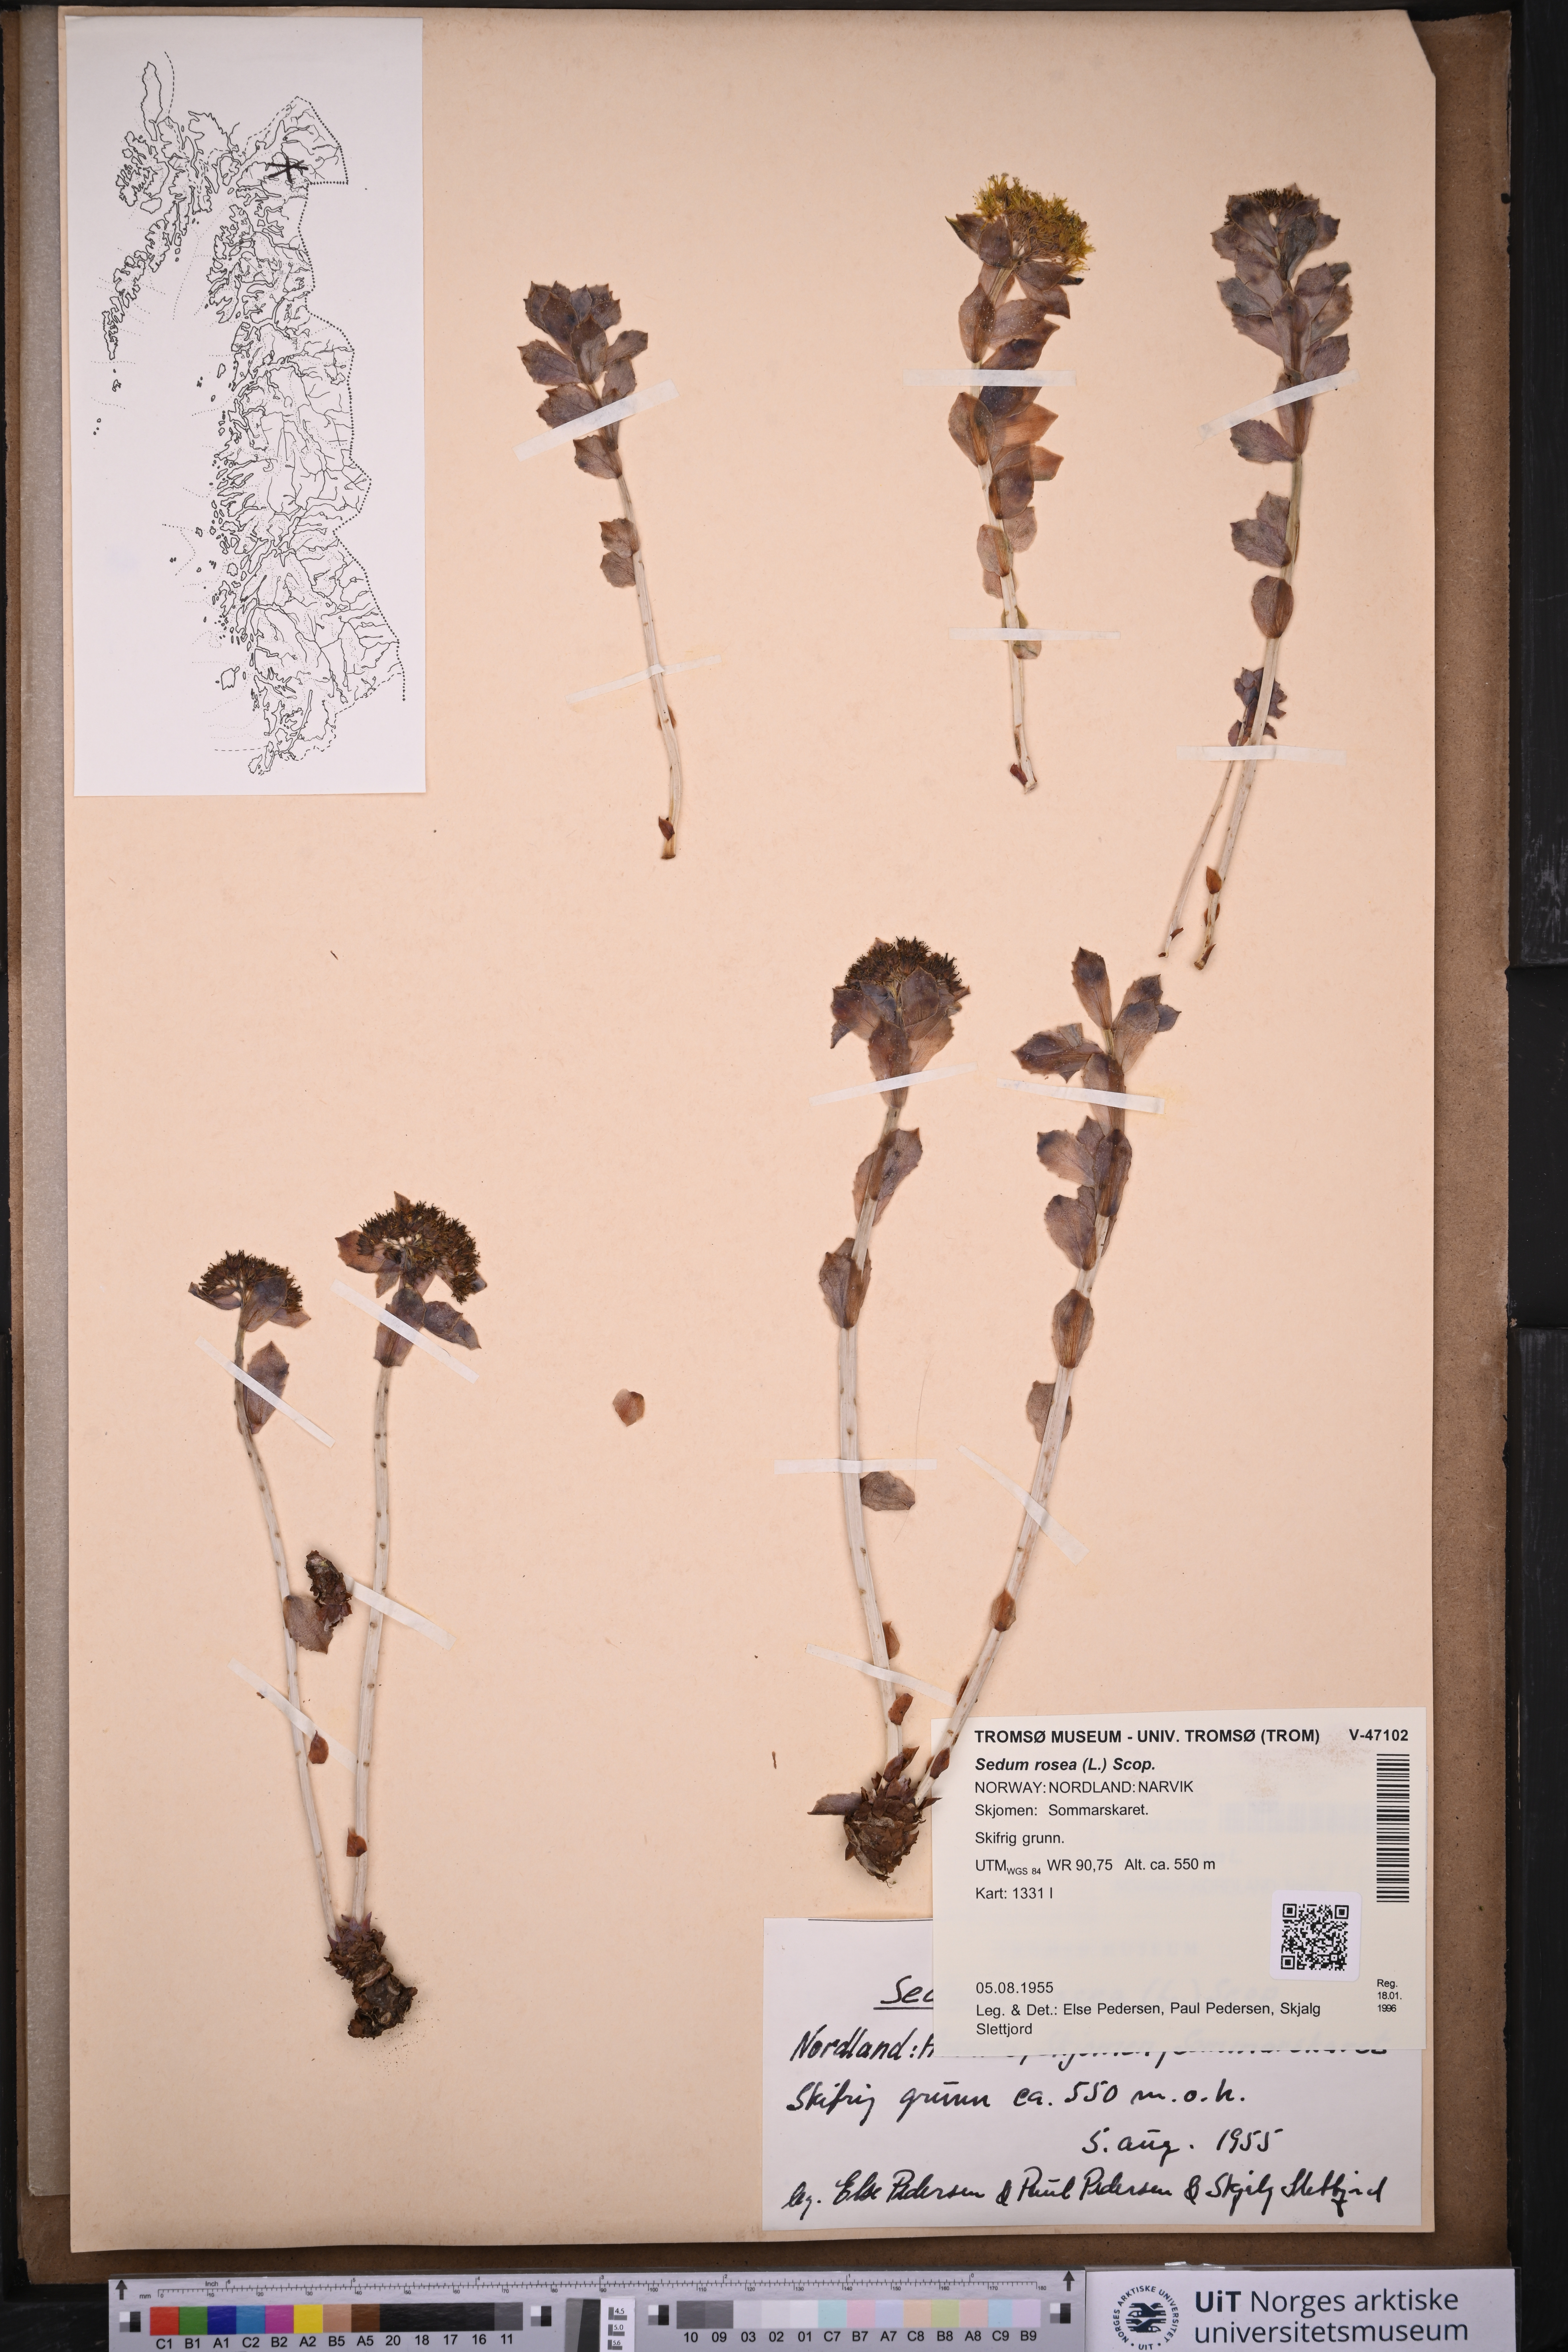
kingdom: Plantae
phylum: Tracheophyta
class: Magnoliopsida
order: Saxifragales
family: Crassulaceae
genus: Rhodiola
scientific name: Rhodiola rosea
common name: Roseroot
